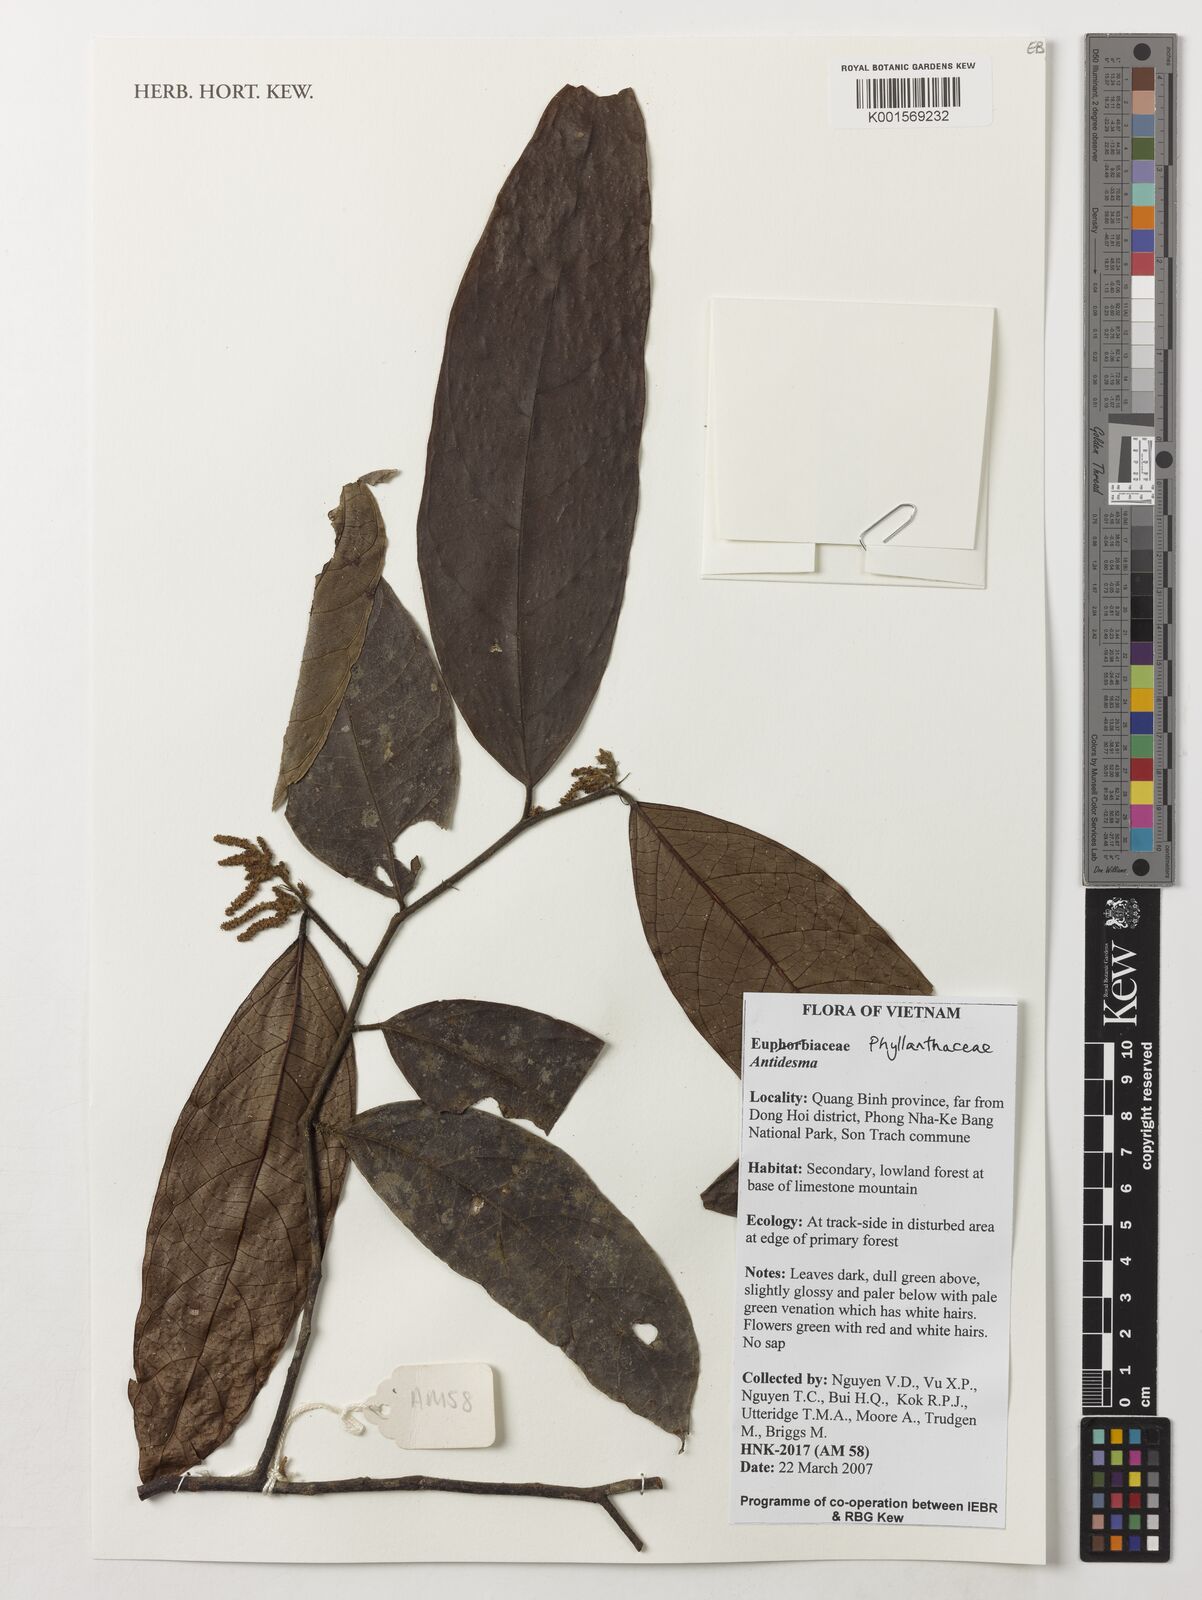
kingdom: Plantae
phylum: Tracheophyta
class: Magnoliopsida
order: Malpighiales
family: Phyllanthaceae
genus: Antidesma
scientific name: Antidesma
